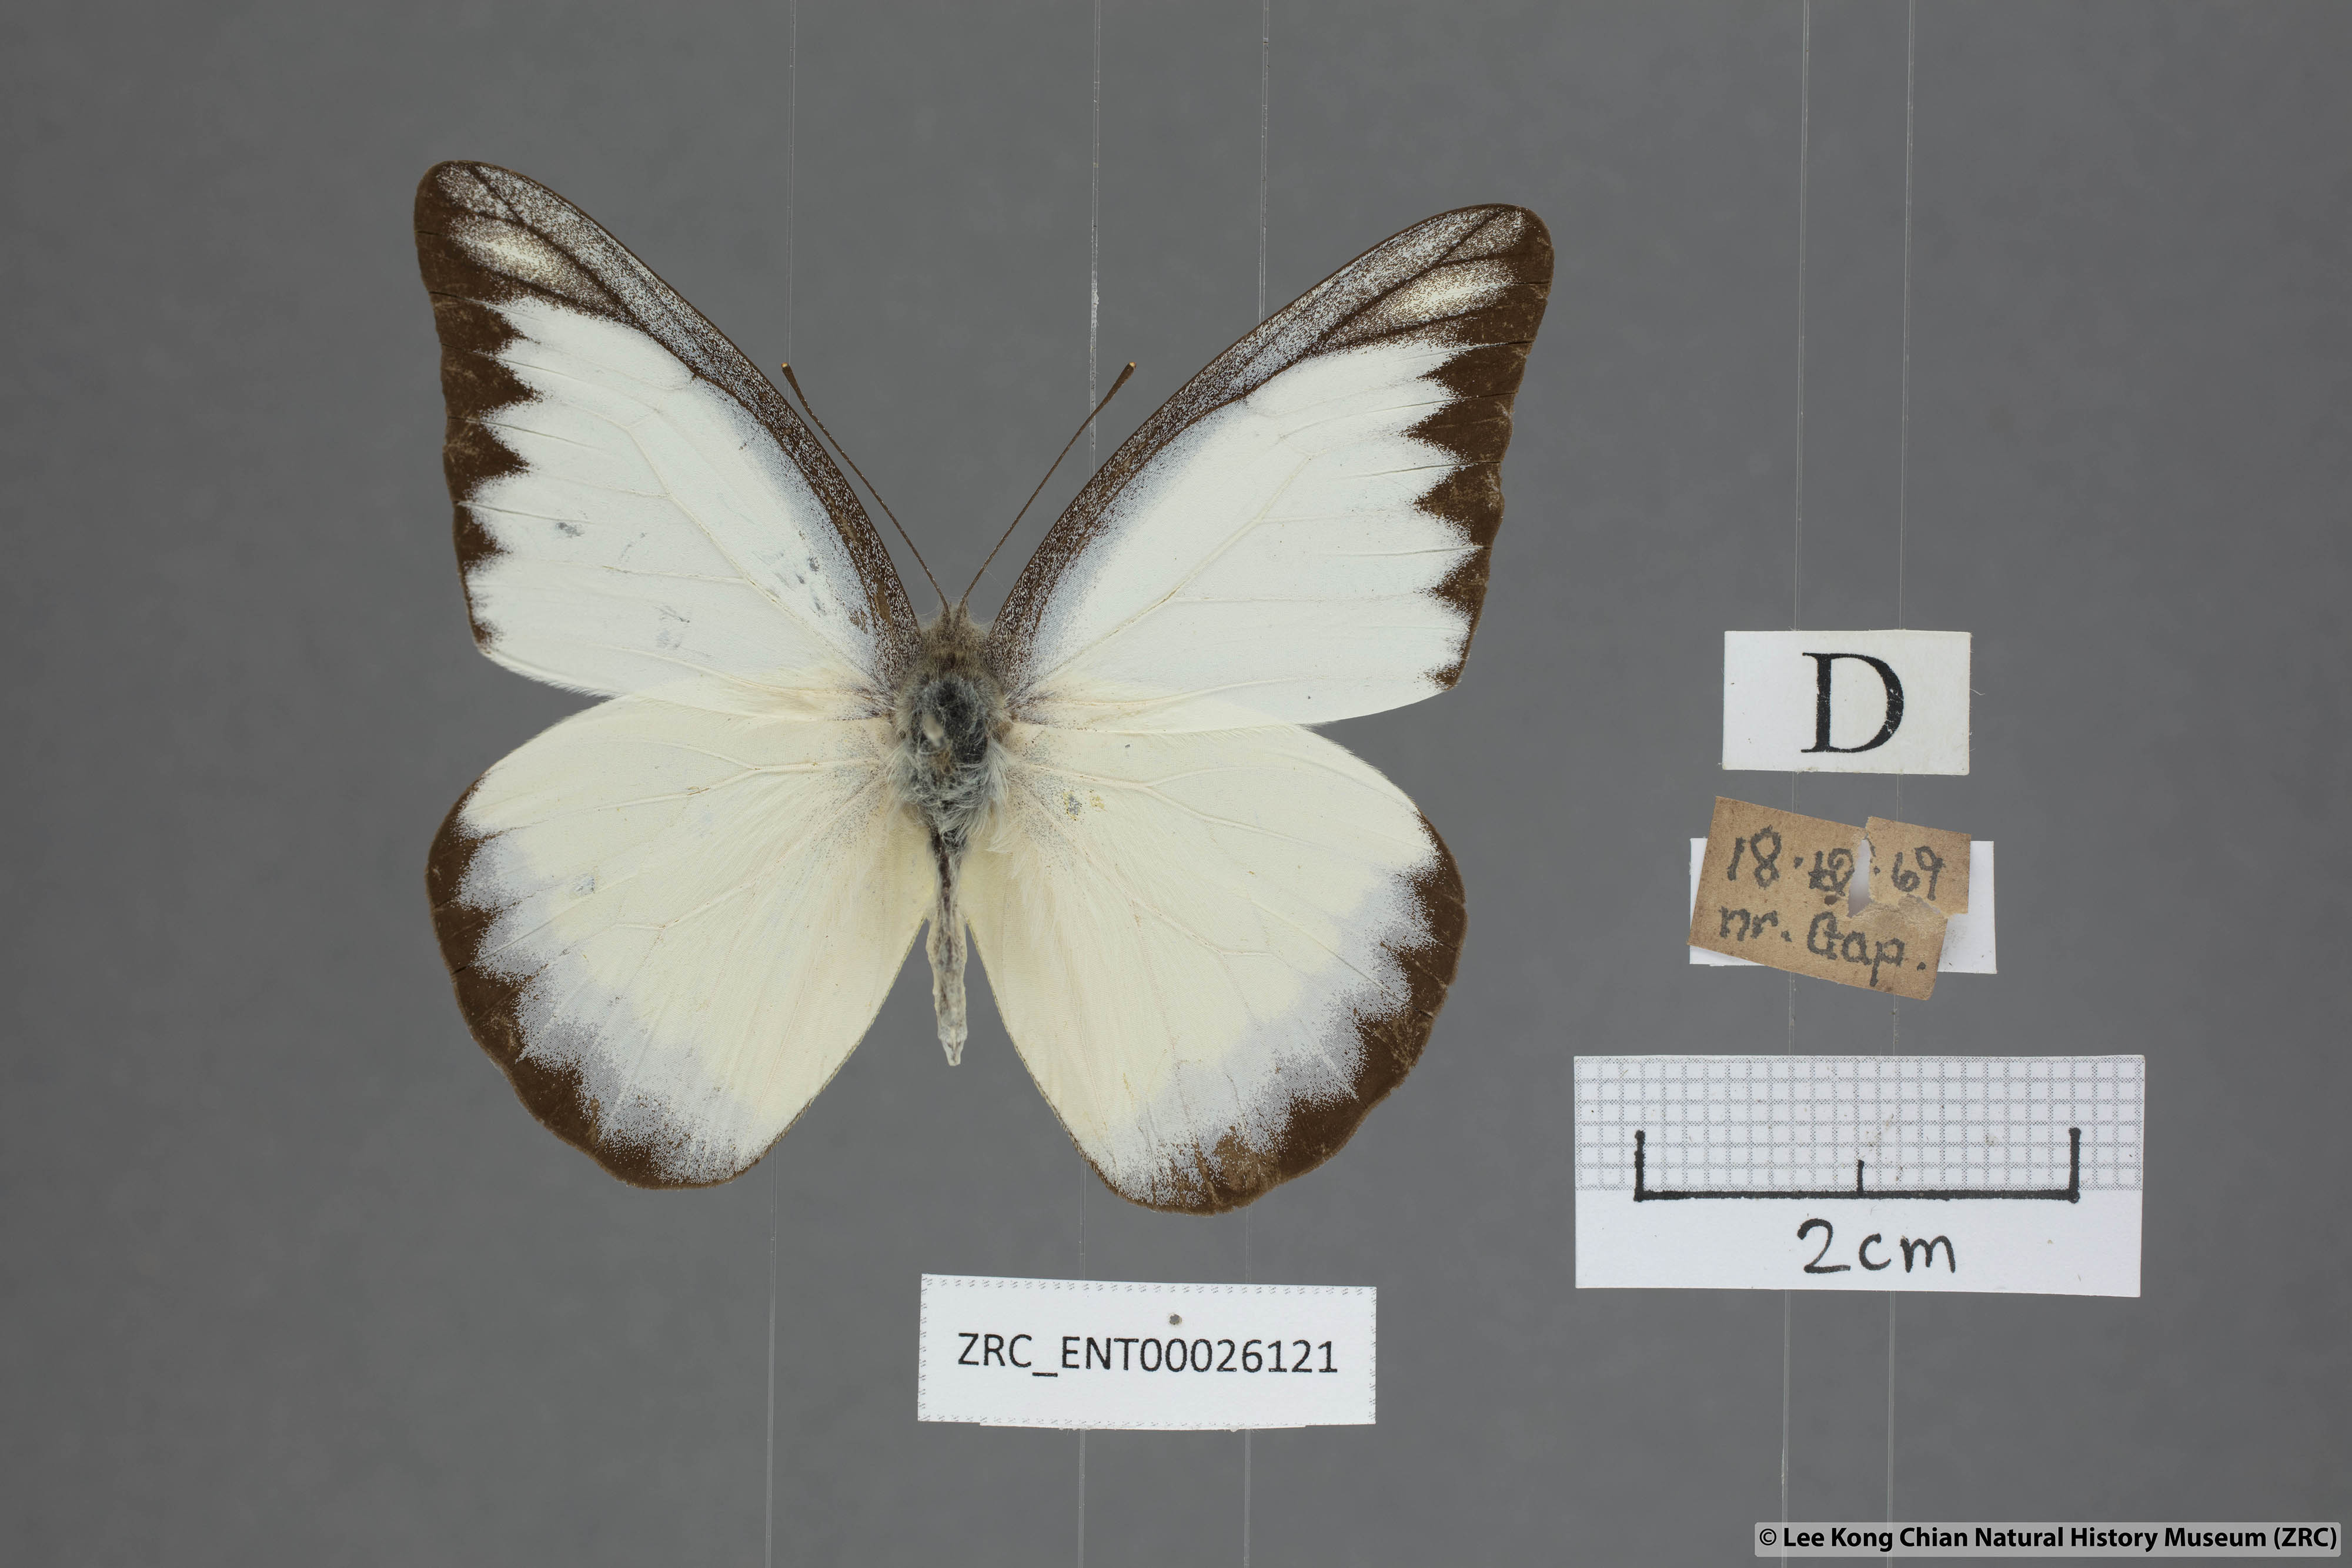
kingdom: Animalia
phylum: Arthropoda
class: Insecta
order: Lepidoptera
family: Pieridae
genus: Appias
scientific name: Appias lyncida
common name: Chocolate albatross
